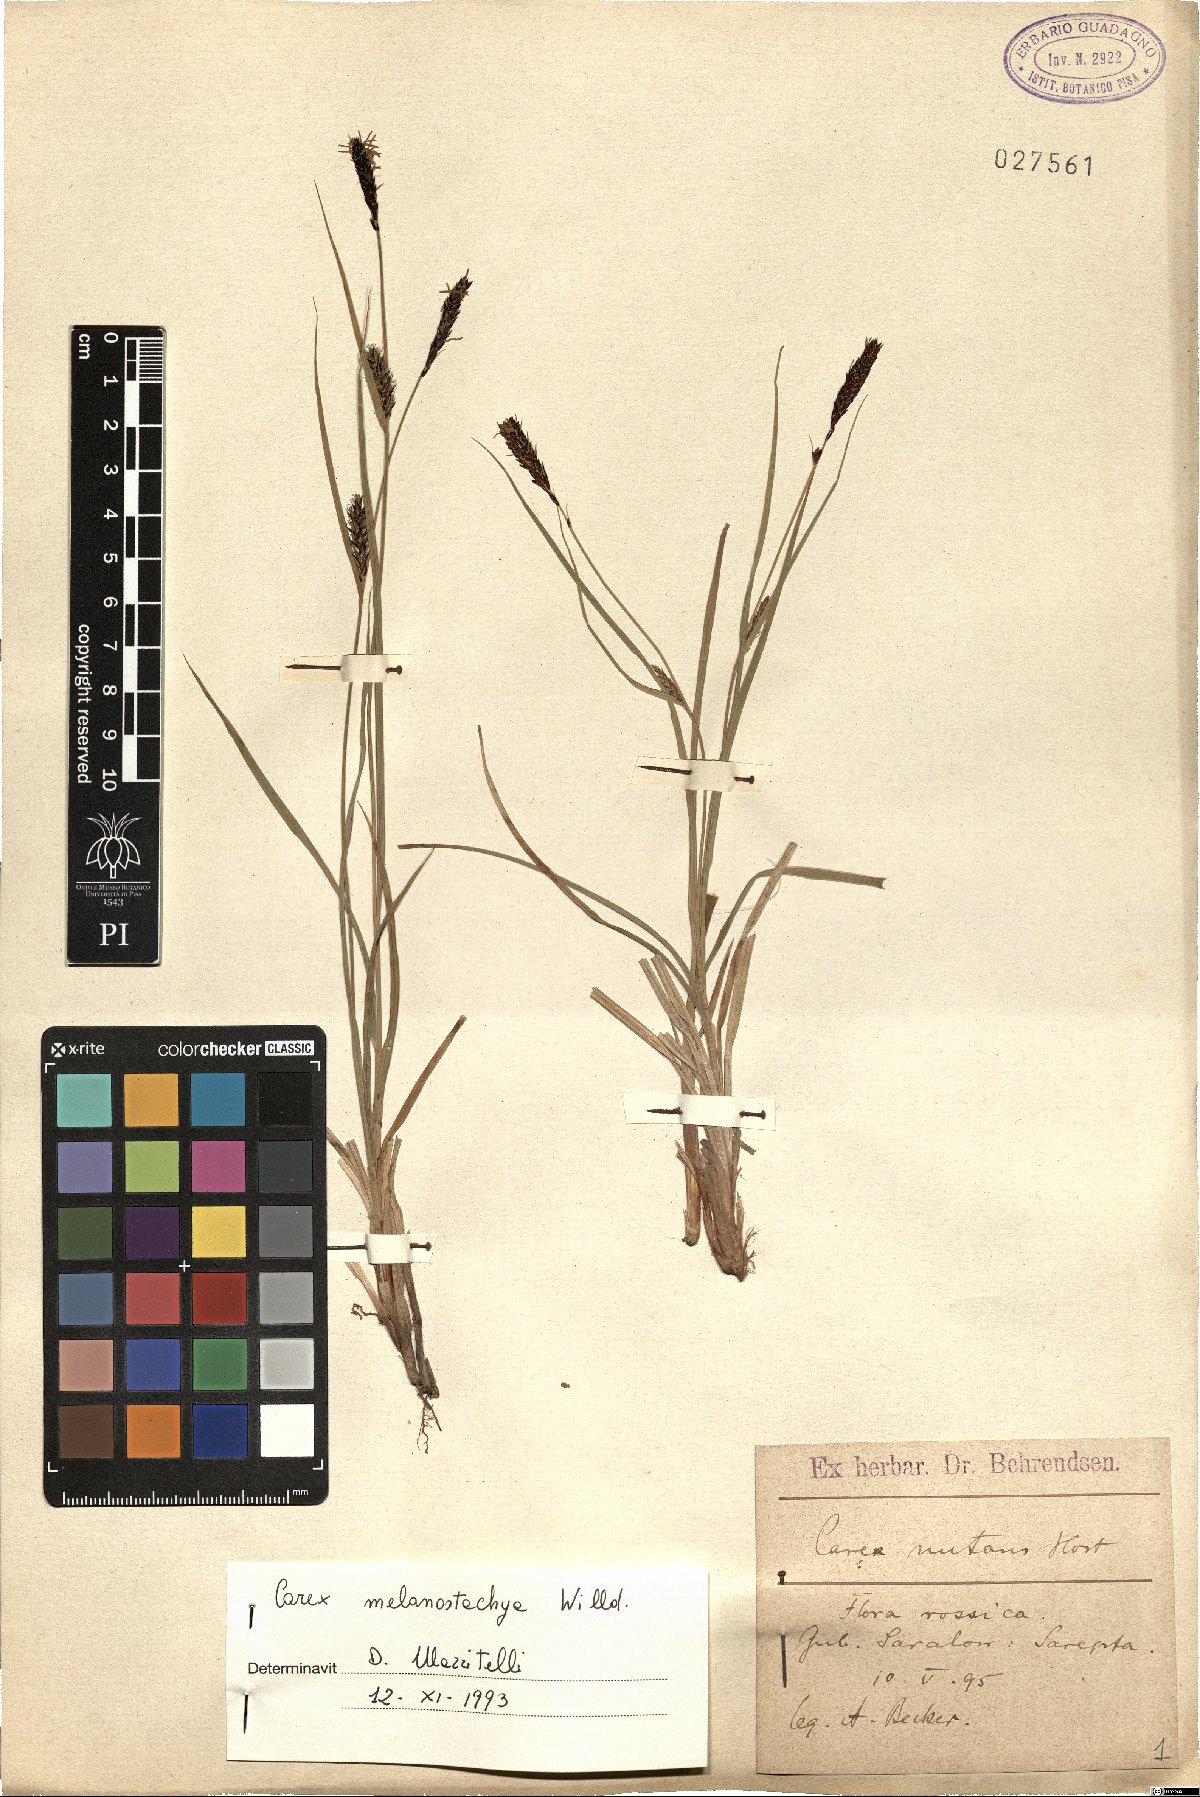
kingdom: Plantae
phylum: Tracheophyta
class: Liliopsida
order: Poales
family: Cyperaceae
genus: Carex
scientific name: Carex melanostachya
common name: Black-spiked sedge
